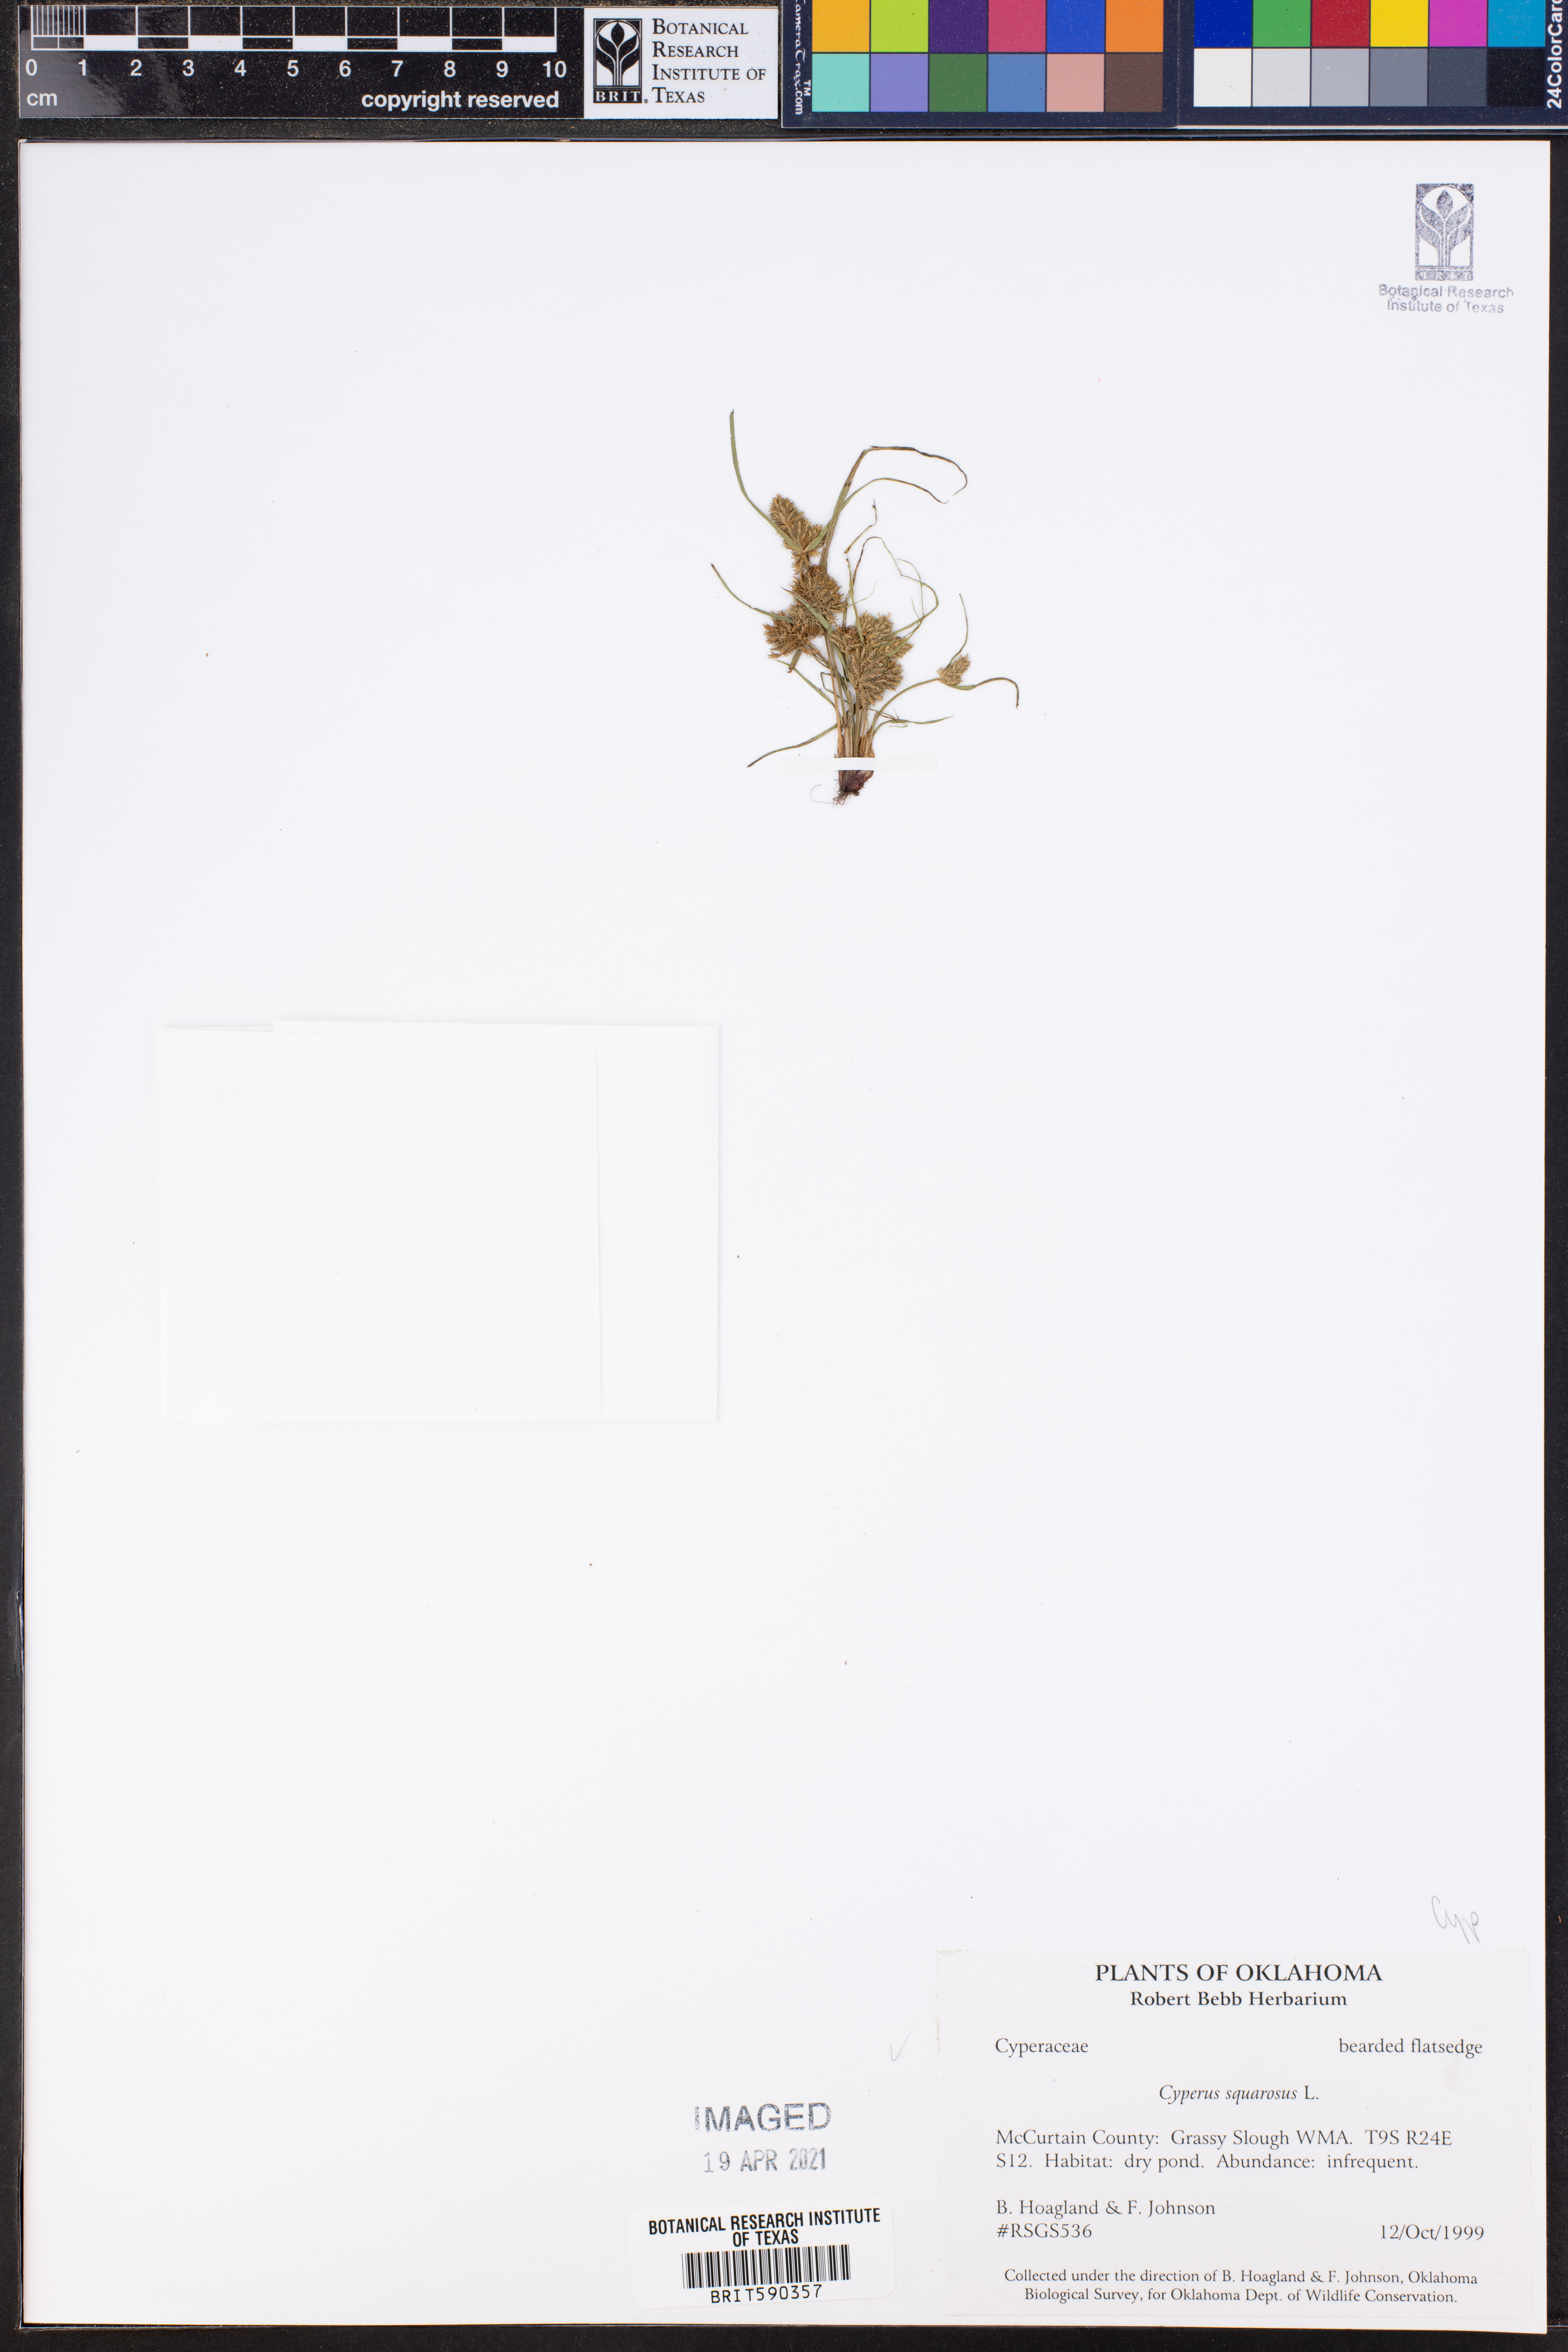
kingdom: Plantae
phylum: Tracheophyta
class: Liliopsida
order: Poales
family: Cyperaceae
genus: Cyperus
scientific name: Cyperus squarrosus
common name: Awned cyperus
